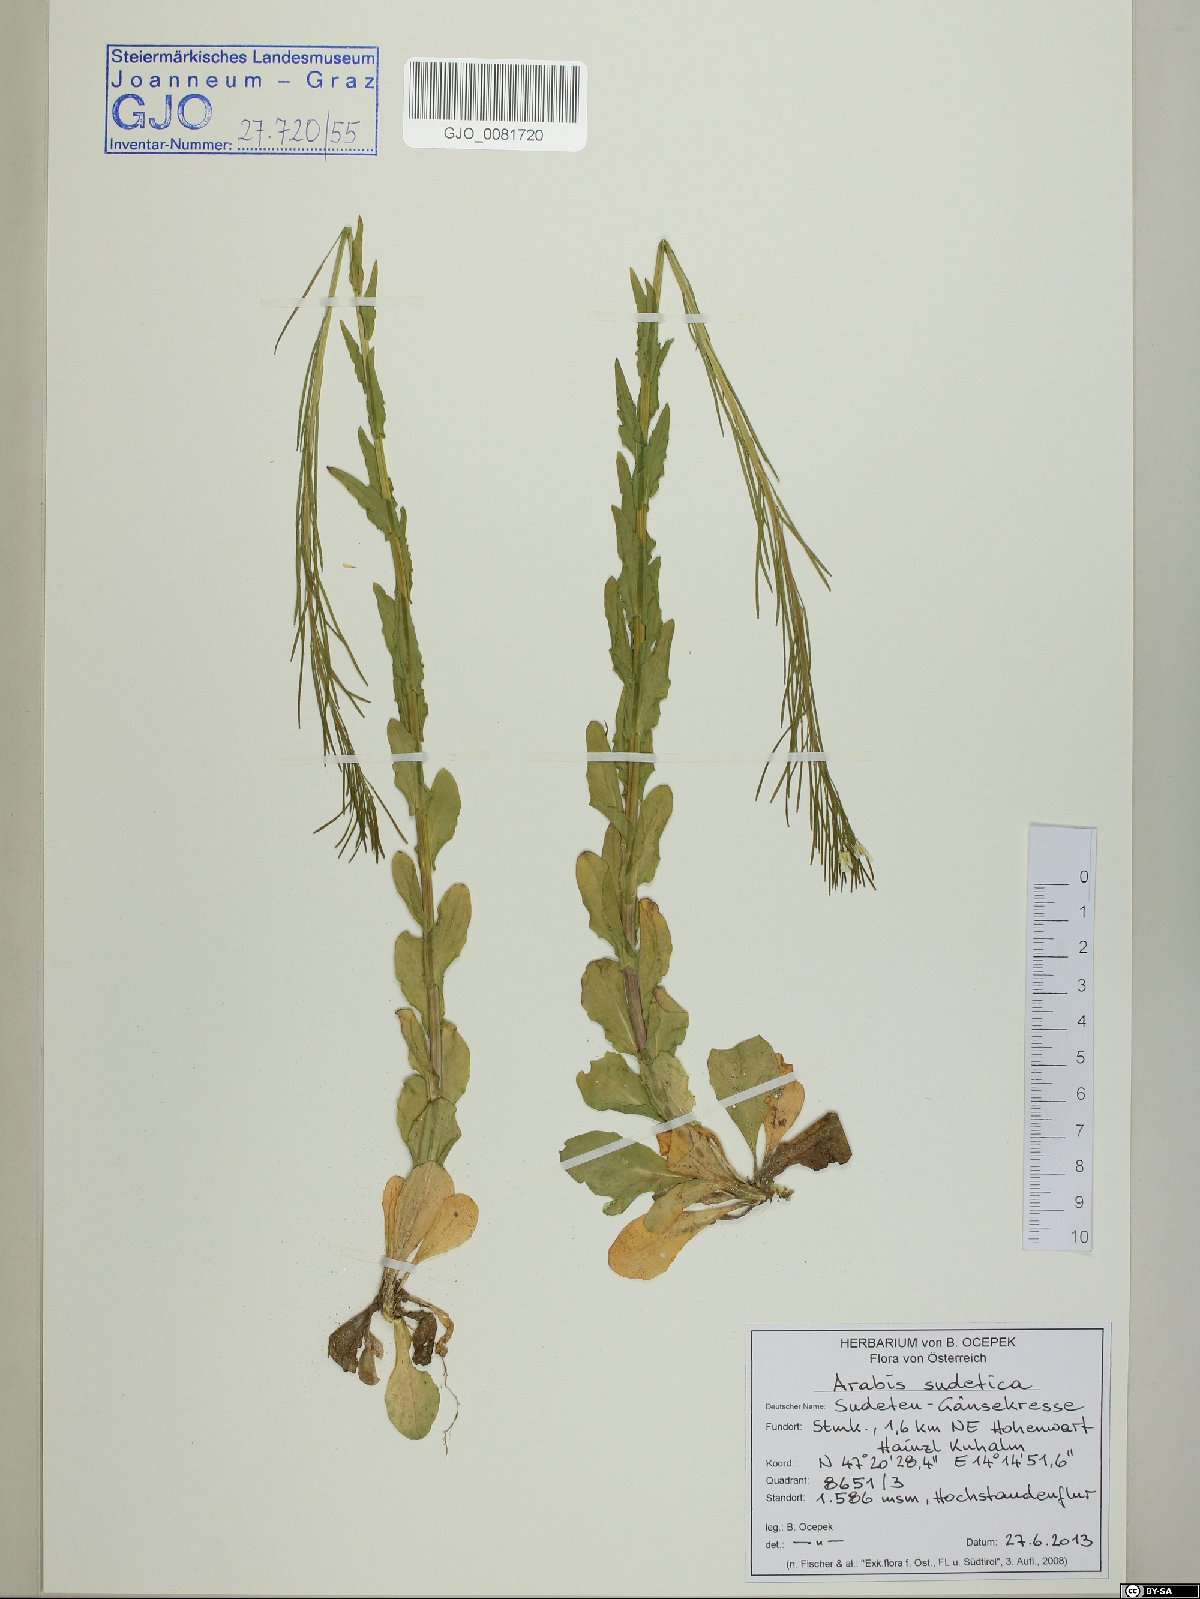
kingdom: Plantae
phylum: Tracheophyta
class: Magnoliopsida
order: Brassicales
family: Brassicaceae
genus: Arabis
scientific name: Arabis sudetica
